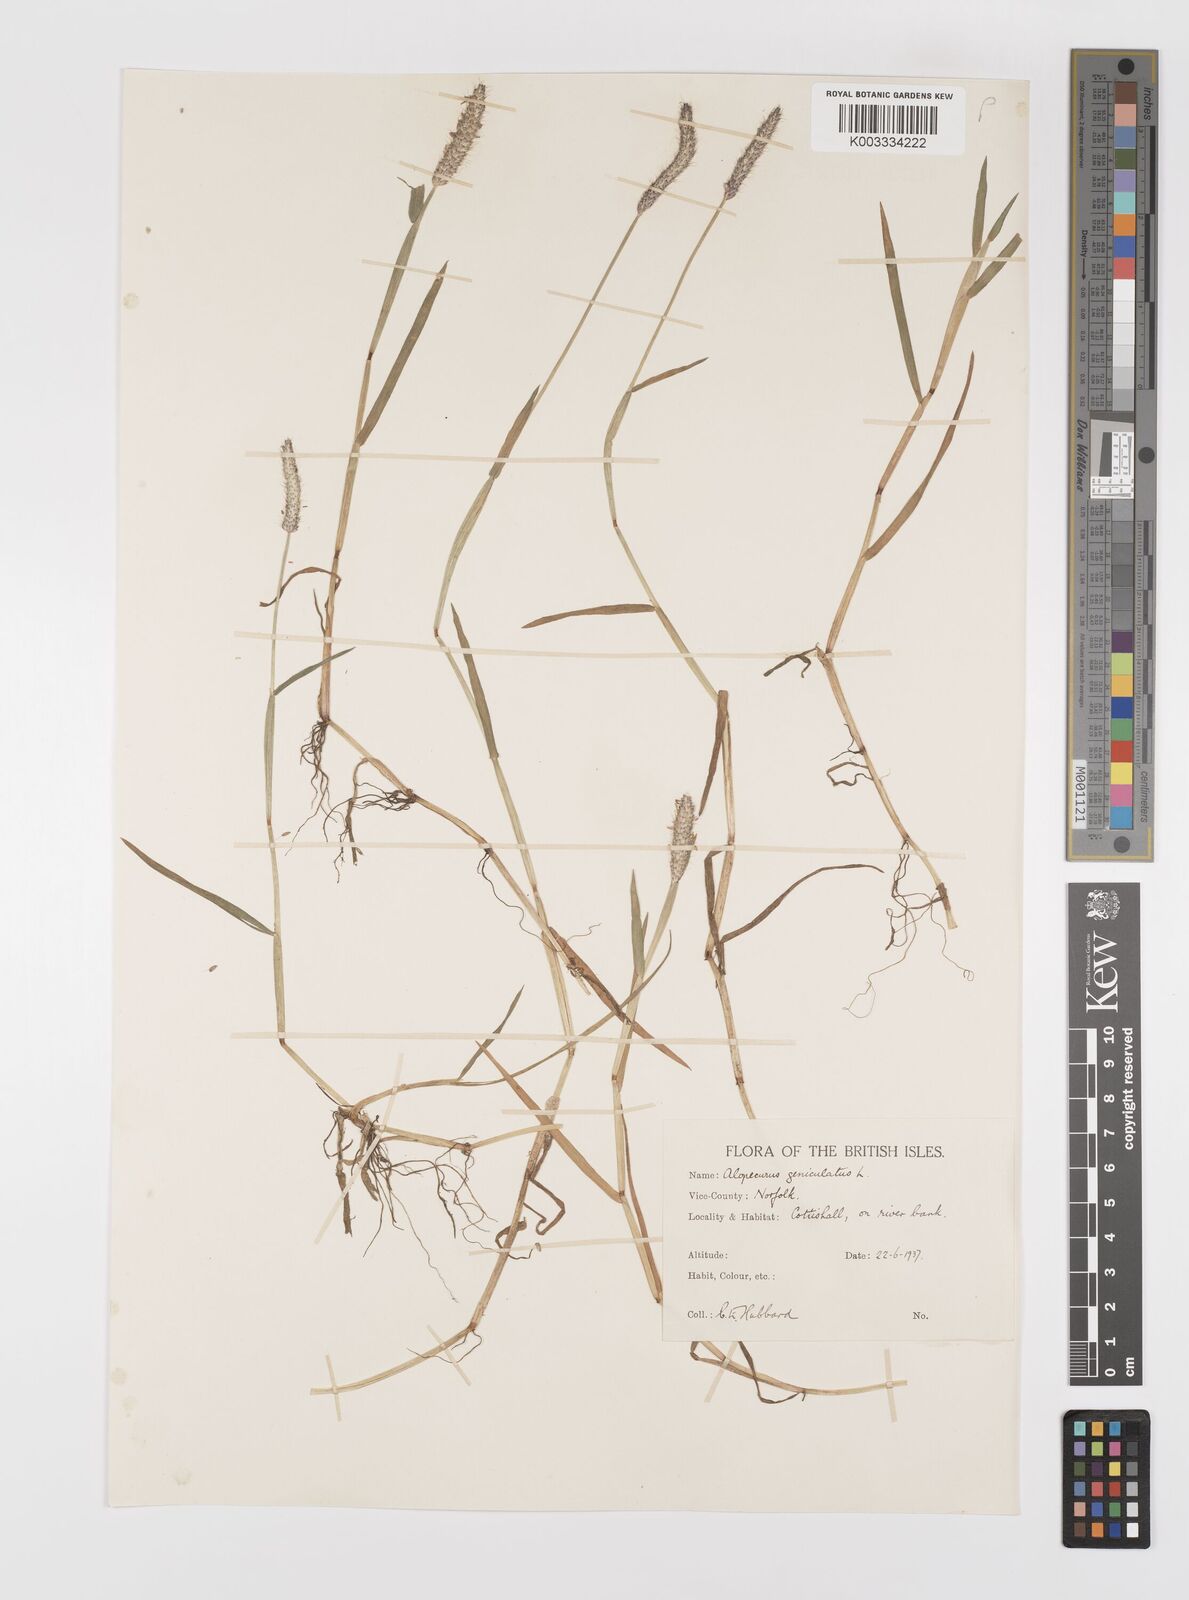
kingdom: Plantae
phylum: Tracheophyta
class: Liliopsida
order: Poales
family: Poaceae
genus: Alopecurus
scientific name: Alopecurus geniculatus
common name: Water foxtail
